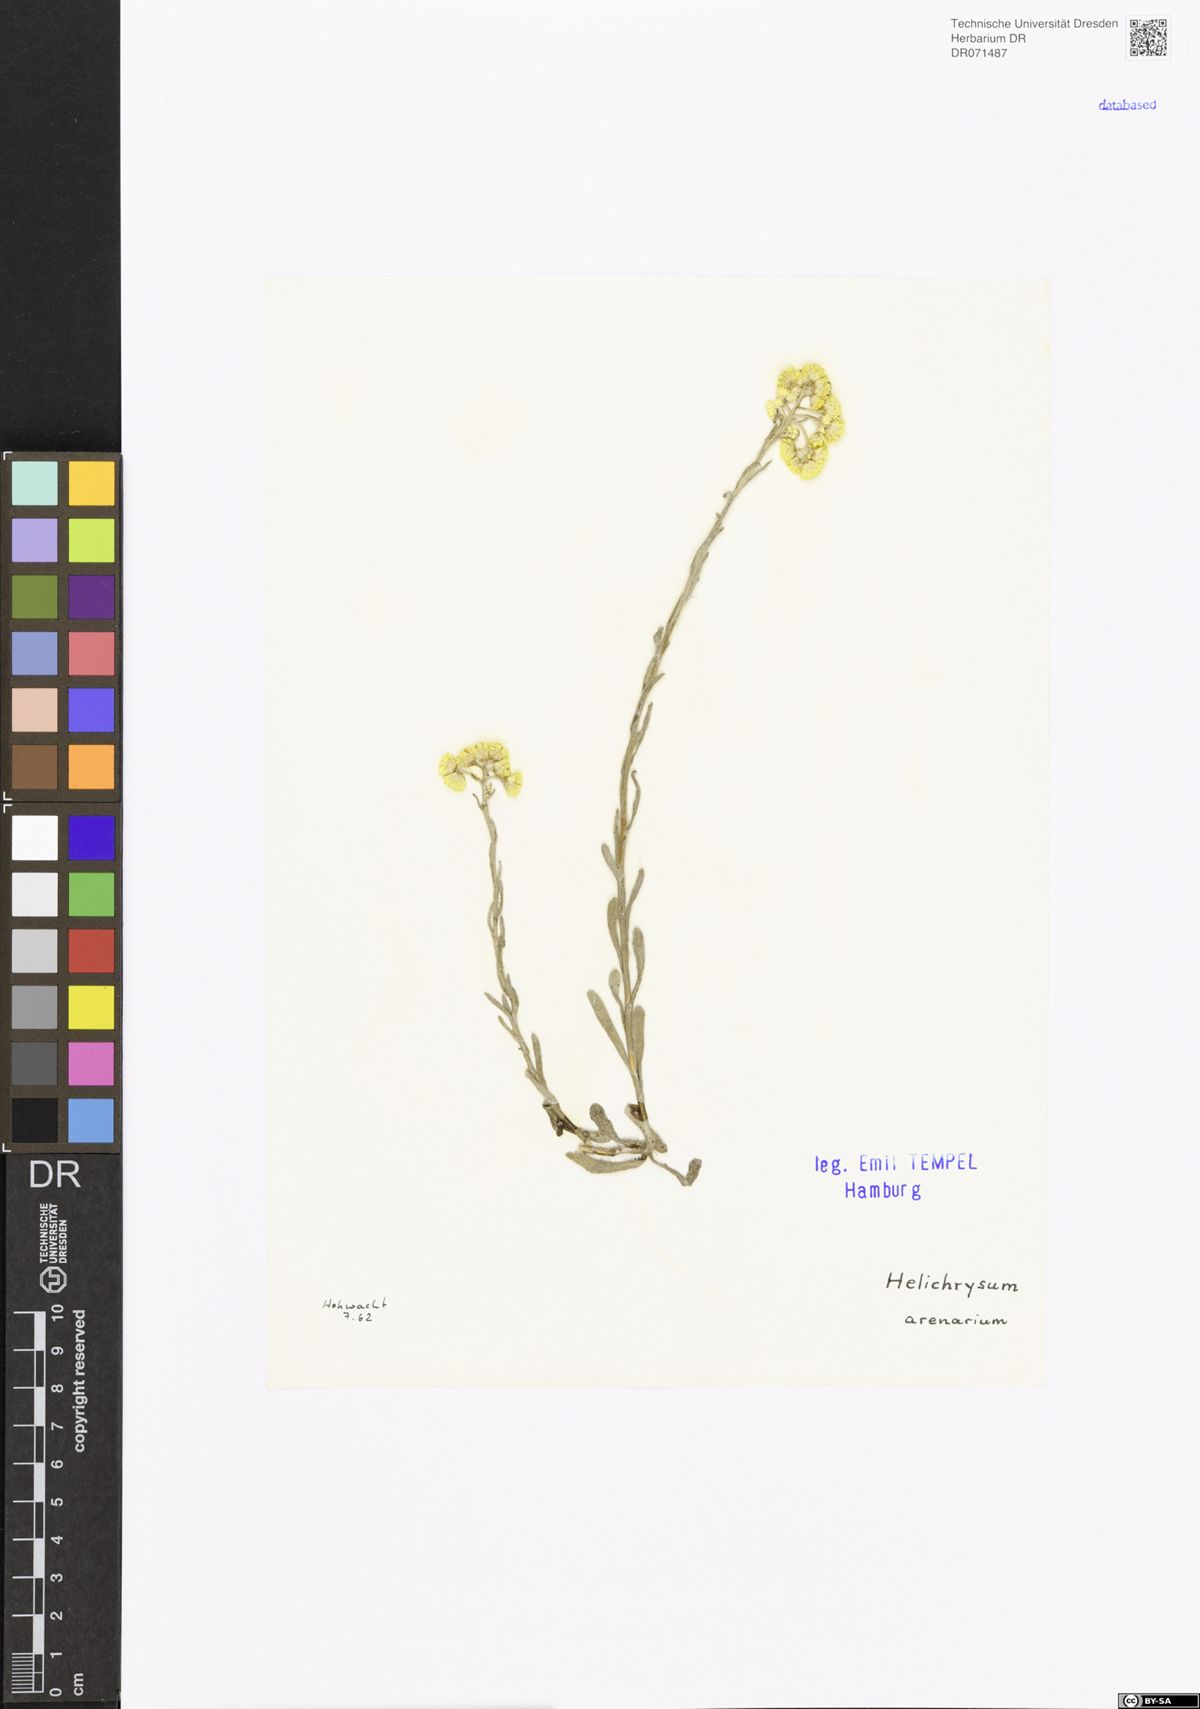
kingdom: Plantae
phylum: Tracheophyta
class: Magnoliopsida
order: Asterales
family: Asteraceae
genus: Helichrysum
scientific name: Helichrysum arenarium
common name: Strawflower
